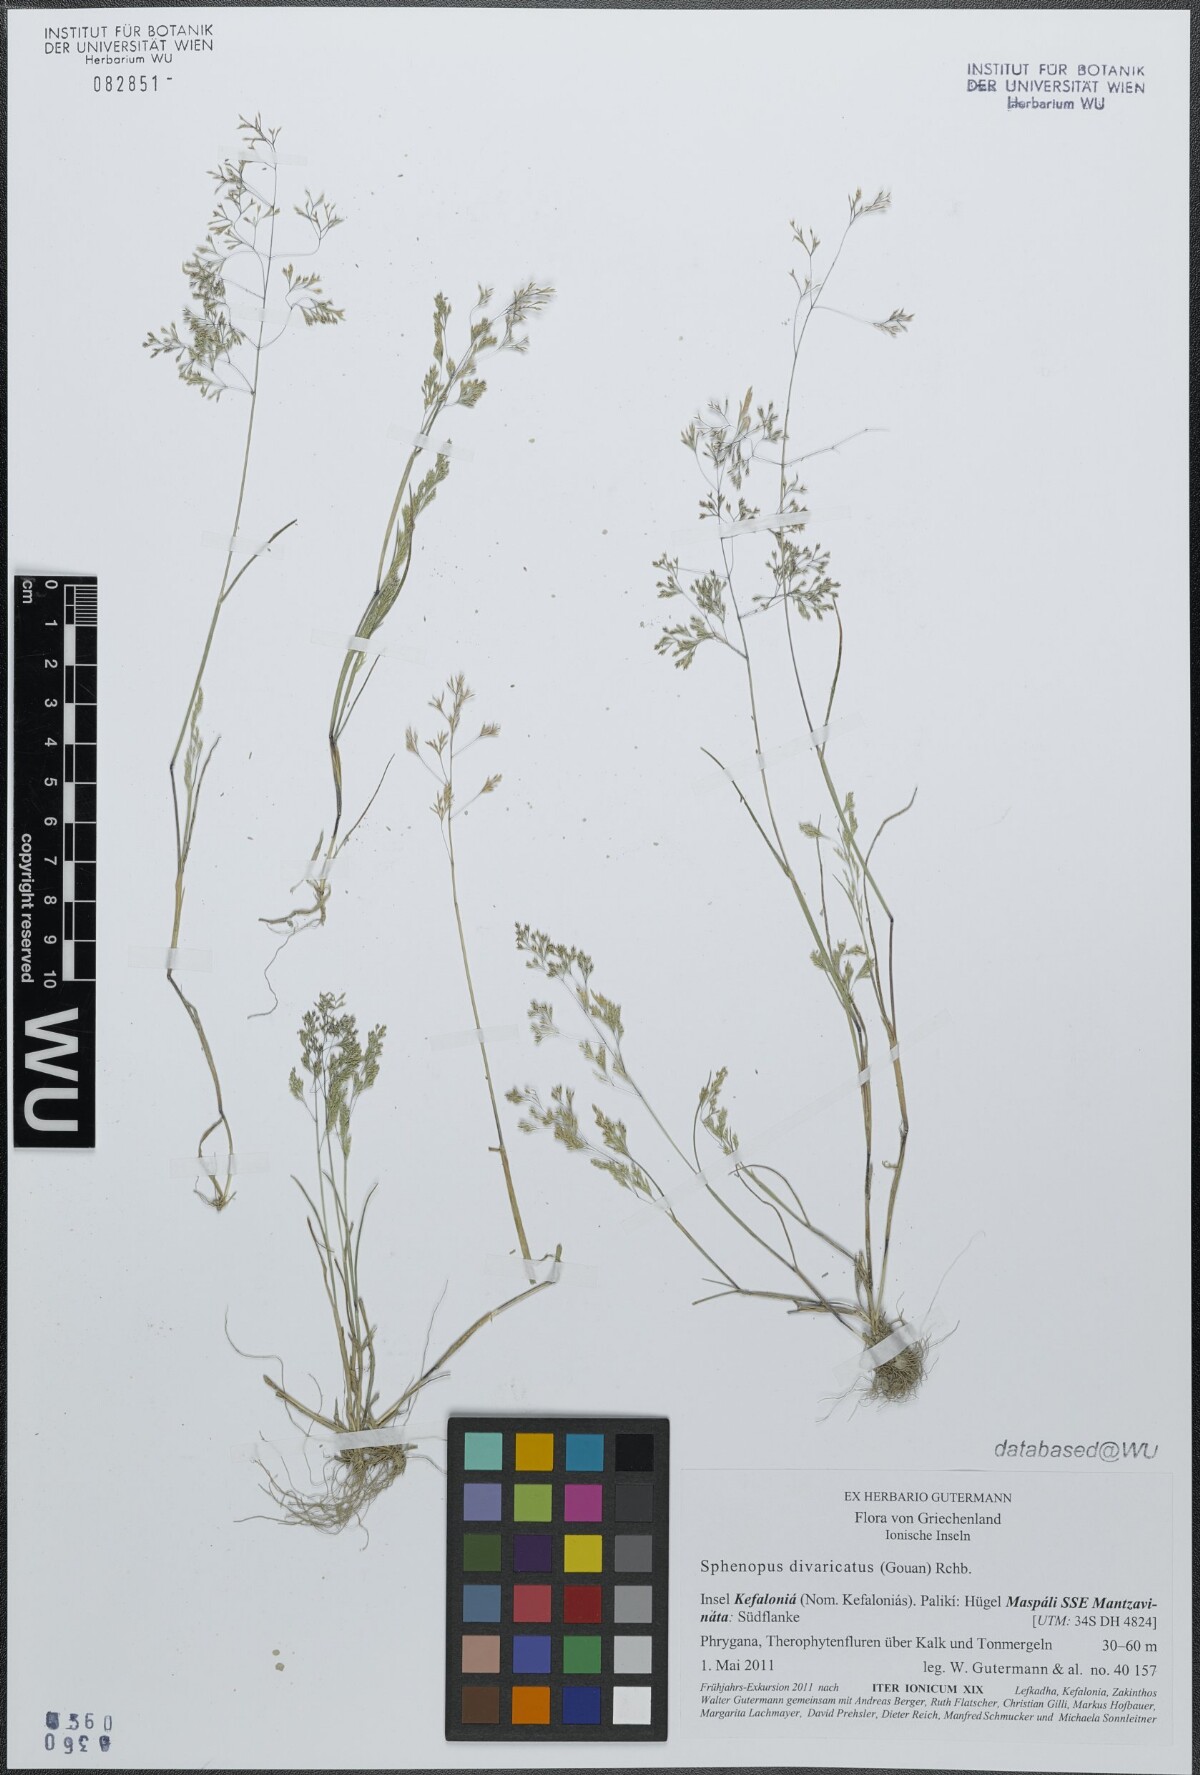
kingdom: Plantae
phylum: Tracheophyta
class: Liliopsida
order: Poales
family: Poaceae
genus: Sphenopus
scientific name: Sphenopus divaricatus
